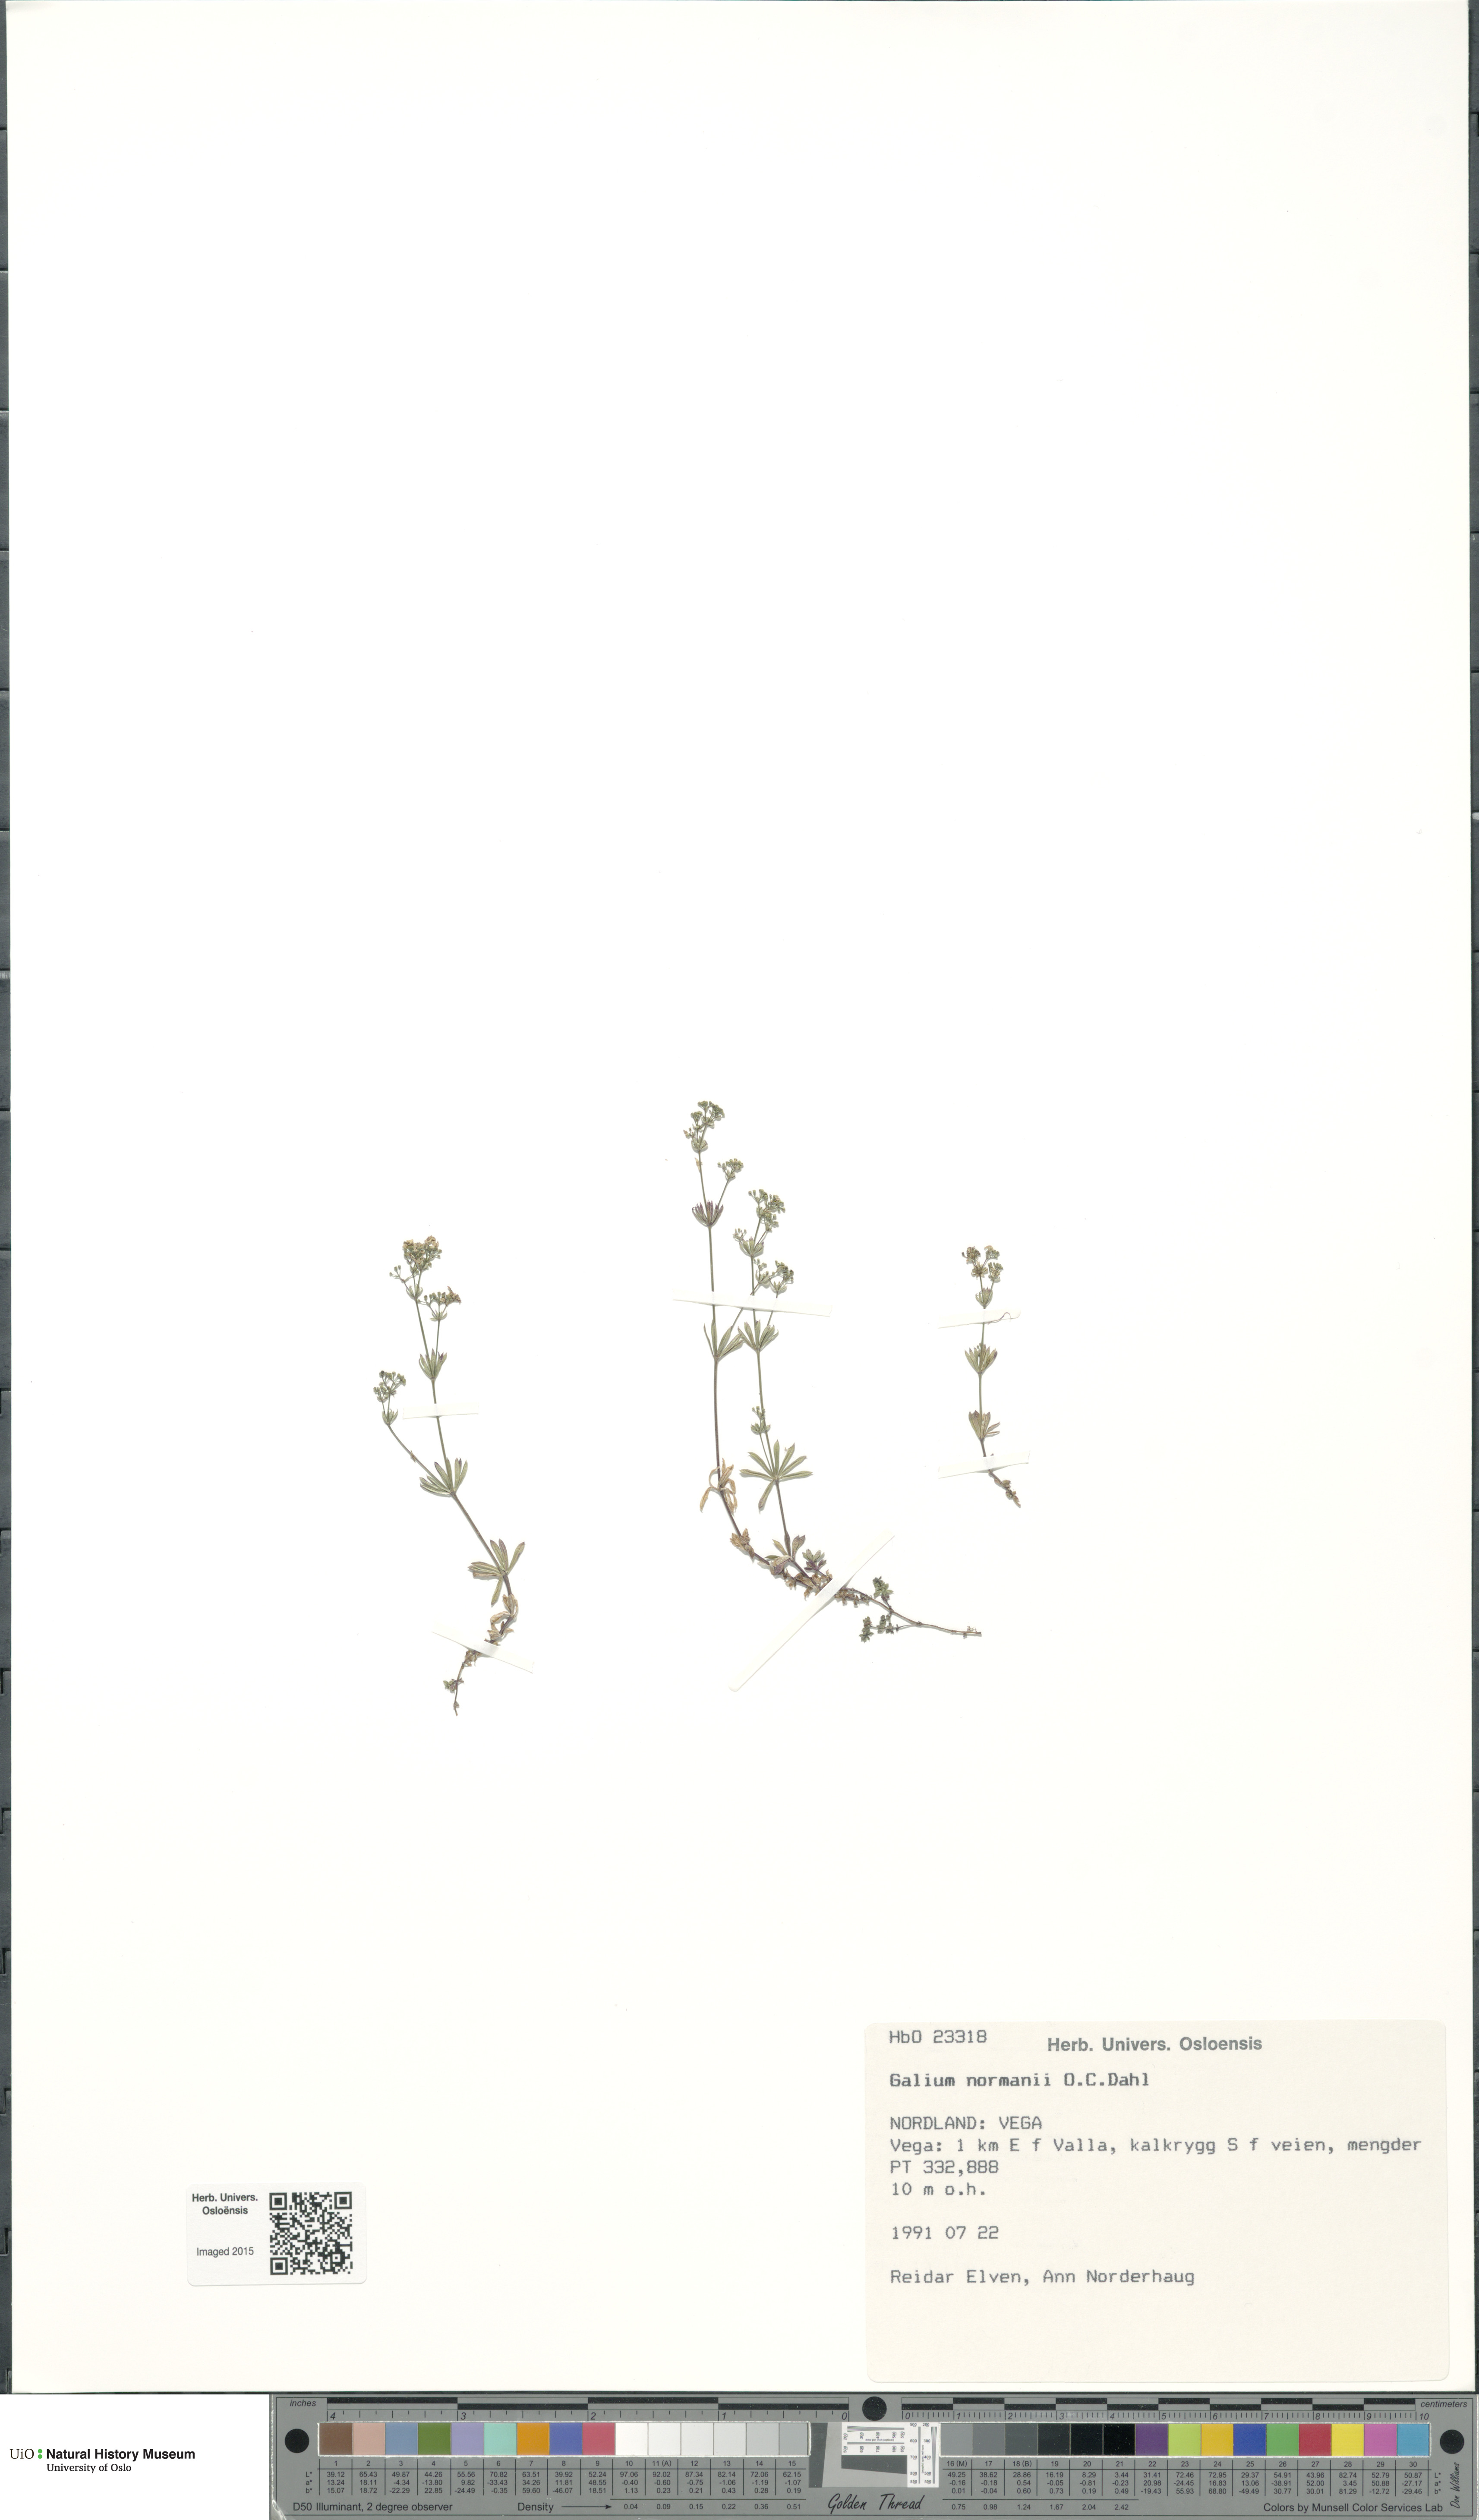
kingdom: Plantae
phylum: Tracheophyta
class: Magnoliopsida
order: Gentianales
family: Rubiaceae
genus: Galium
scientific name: Galium normanii
